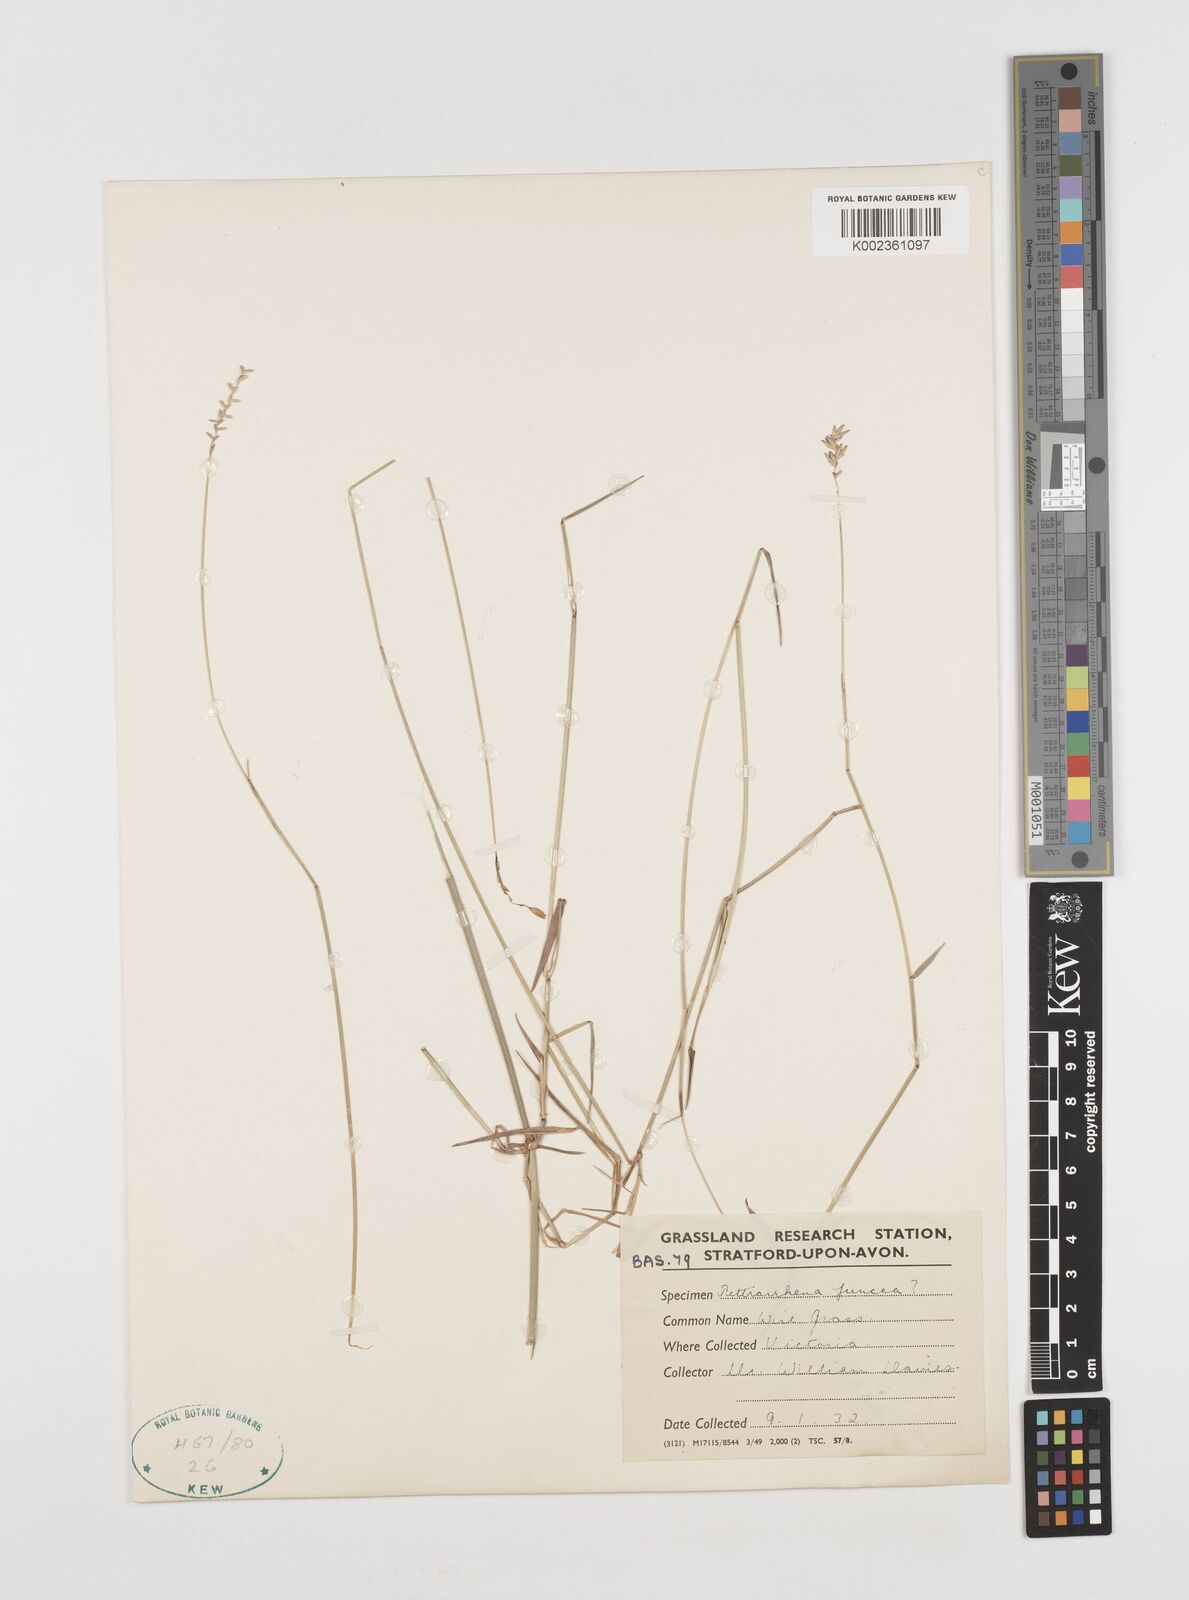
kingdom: Plantae
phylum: Tracheophyta
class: Liliopsida
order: Poales
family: Poaceae
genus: Tetrarrhena
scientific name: Tetrarrhena juncea
